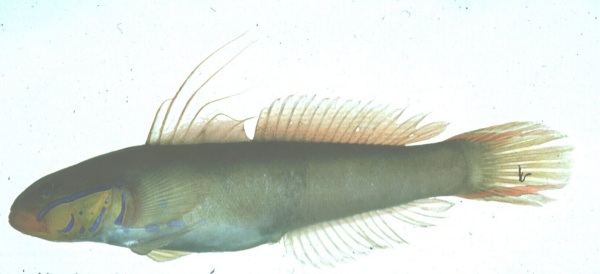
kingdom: Animalia
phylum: Chordata
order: Perciformes
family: Gobiidae
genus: Valenciennea
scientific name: Valenciennea strigata
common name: Blueband goby
